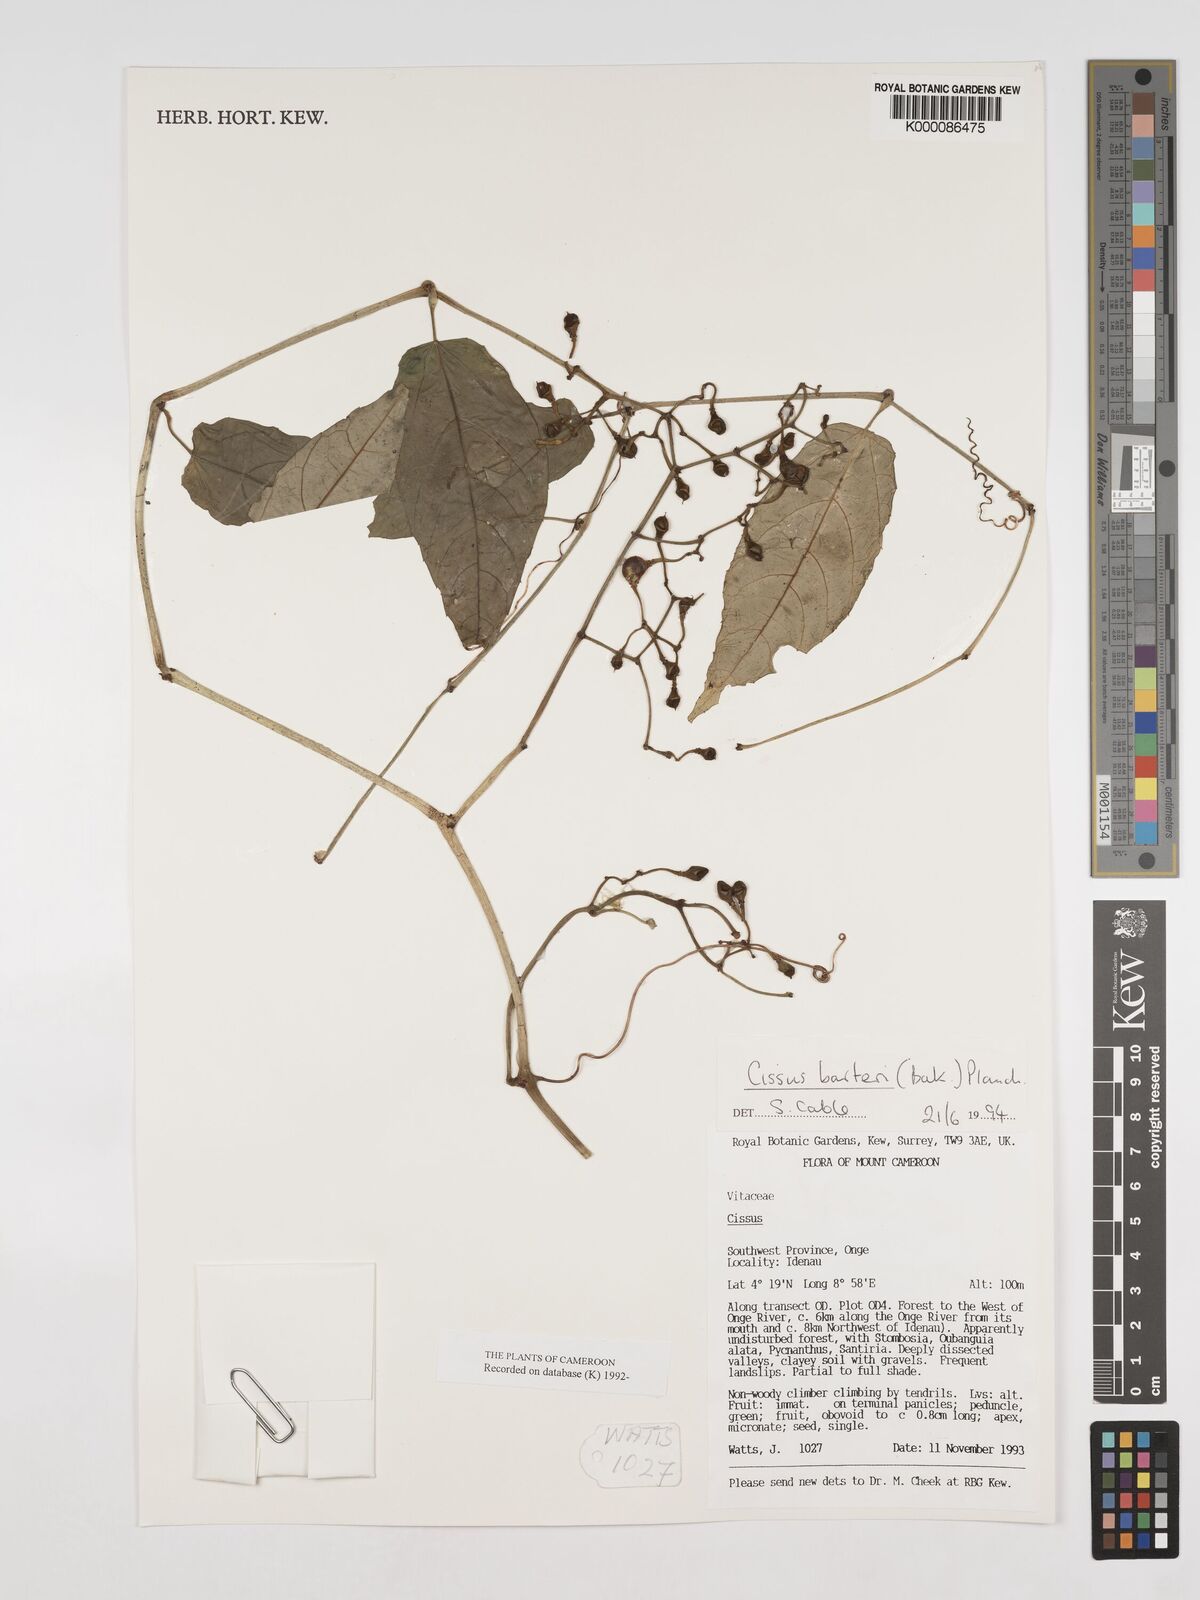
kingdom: Plantae
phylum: Tracheophyta
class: Magnoliopsida
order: Vitales
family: Vitaceae
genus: Cissus
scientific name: Cissus barteri
